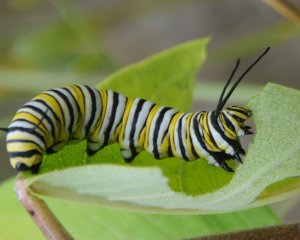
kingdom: Animalia
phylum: Arthropoda
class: Insecta
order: Lepidoptera
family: Nymphalidae
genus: Danaus
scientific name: Danaus plexippus
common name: Monarch
